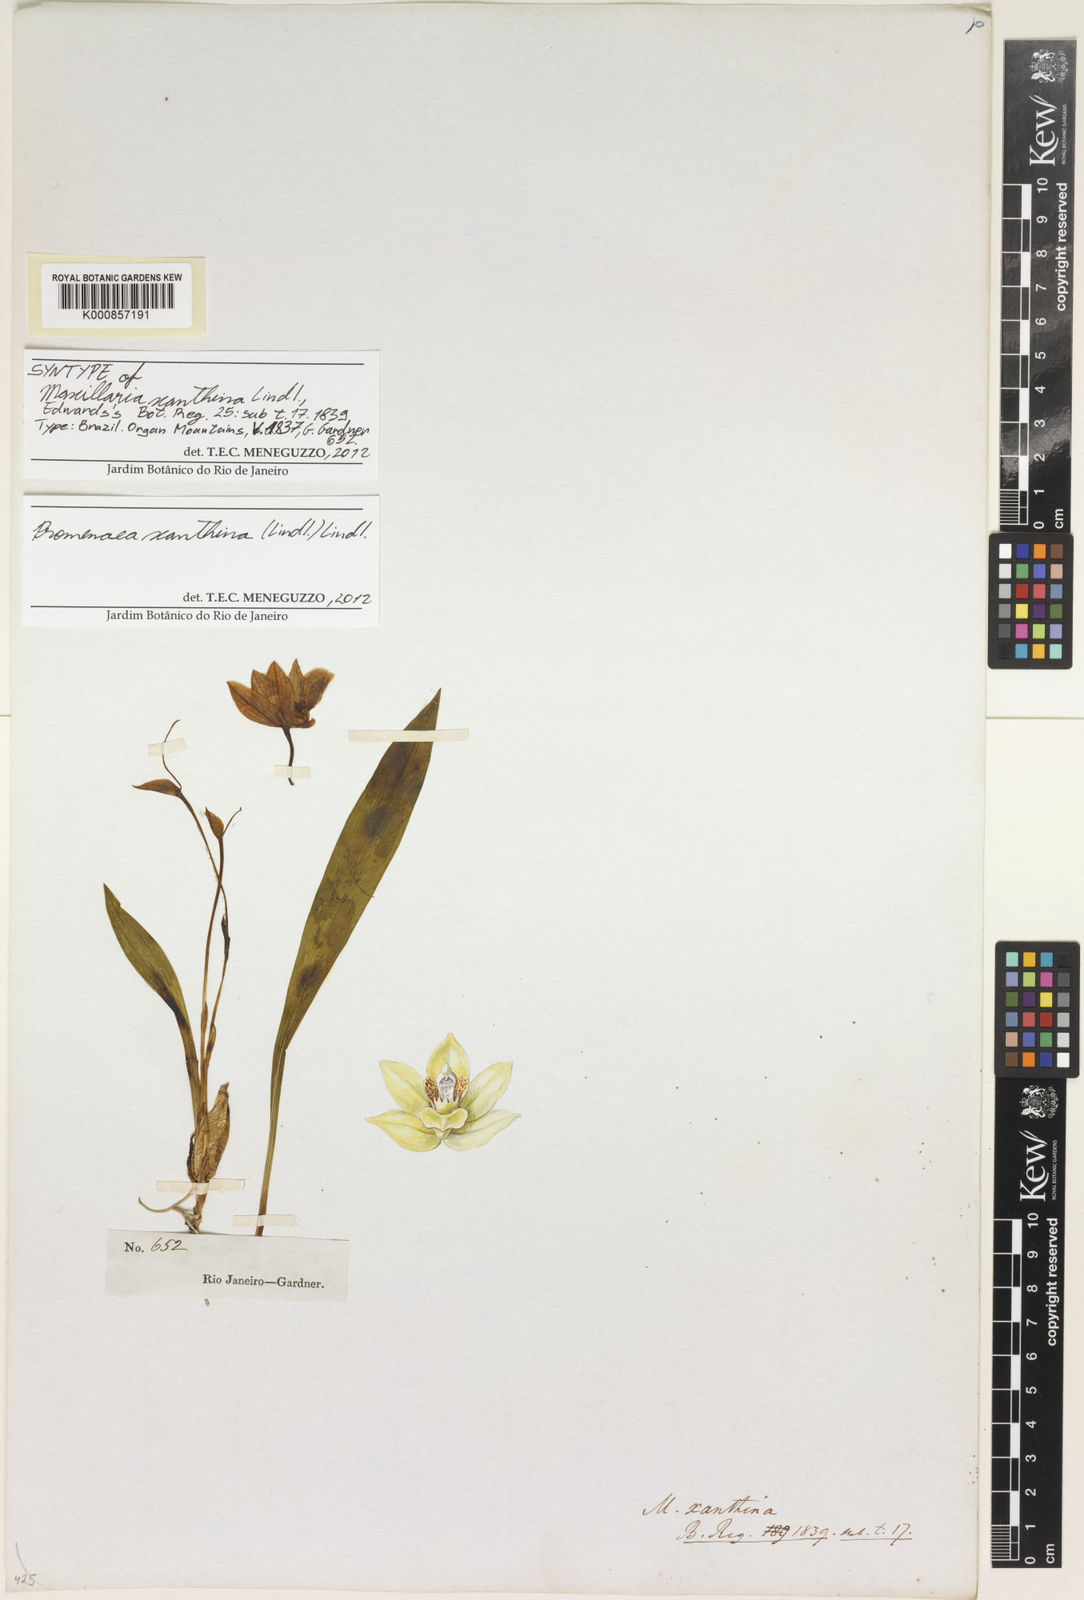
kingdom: Plantae
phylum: Tracheophyta
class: Liliopsida
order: Asparagales
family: Orchidaceae
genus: Promenaea
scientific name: Promenaea xanthina
